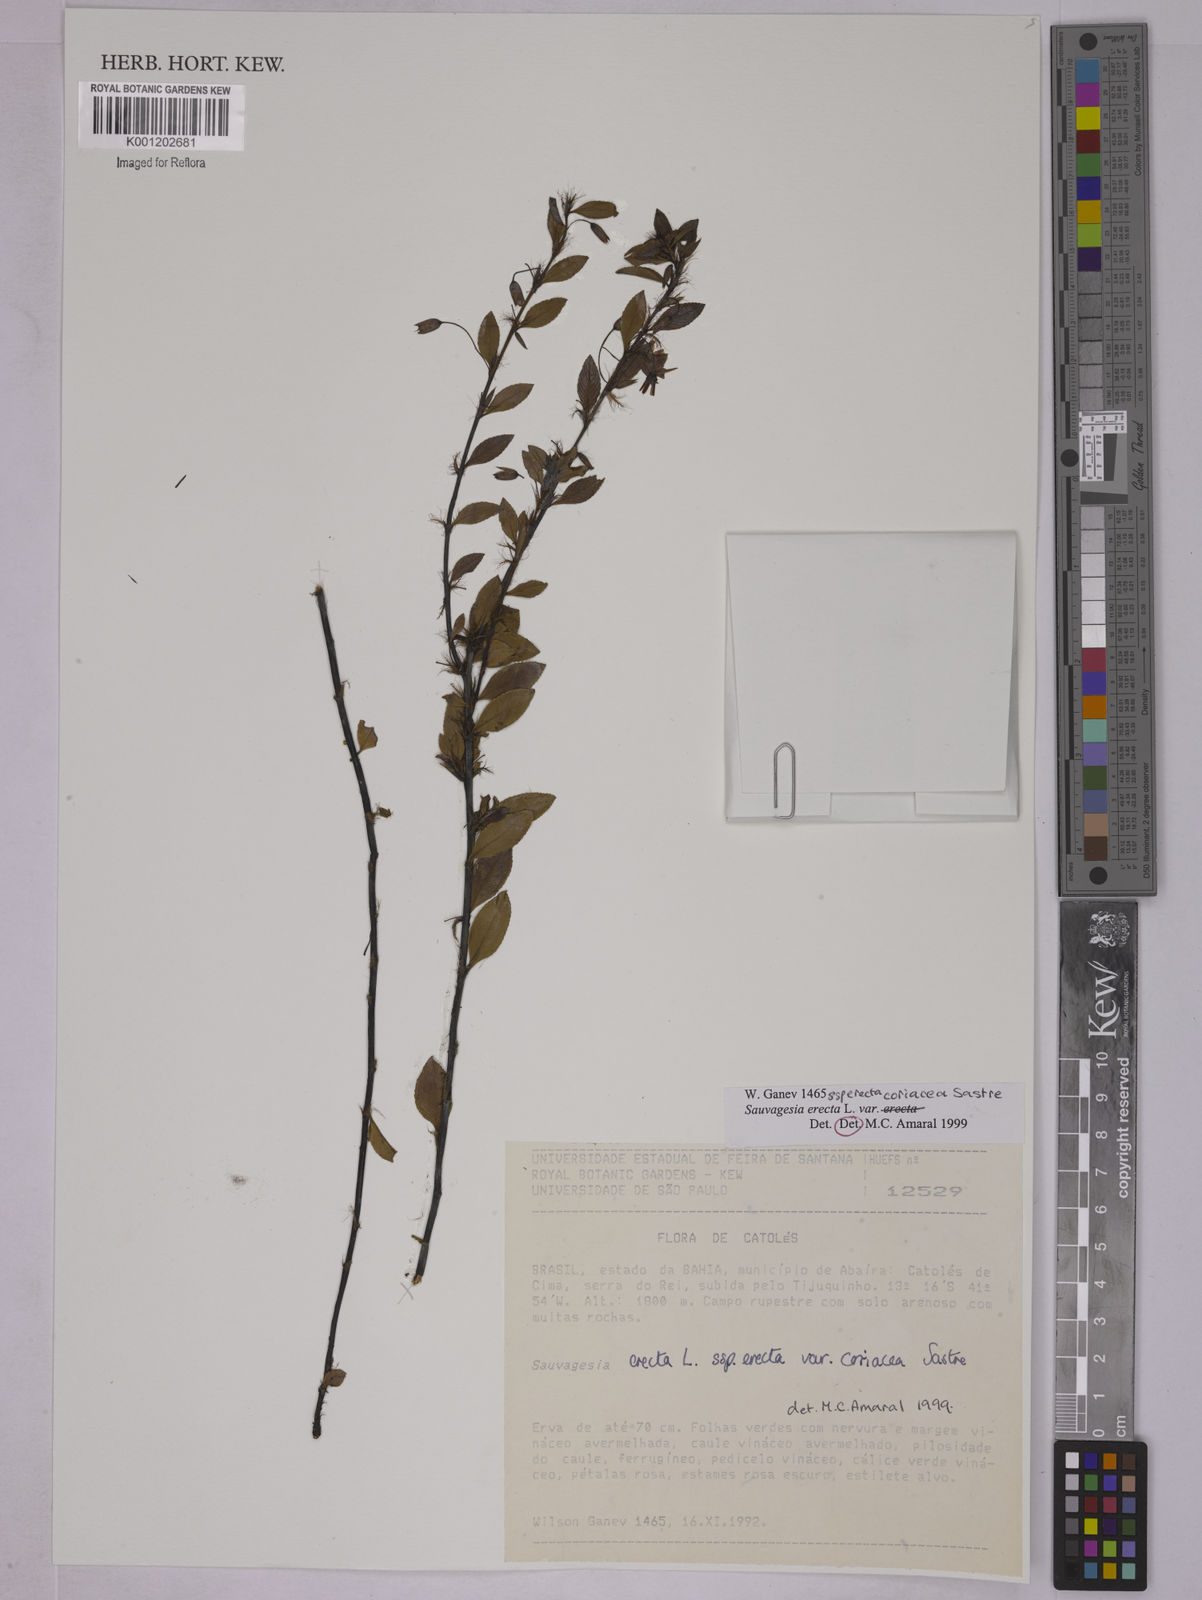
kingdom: Plantae
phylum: Tracheophyta
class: Magnoliopsida
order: Malpighiales
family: Ochnaceae
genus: Sauvagesia
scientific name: Sauvagesia erecta
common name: Creole tea
